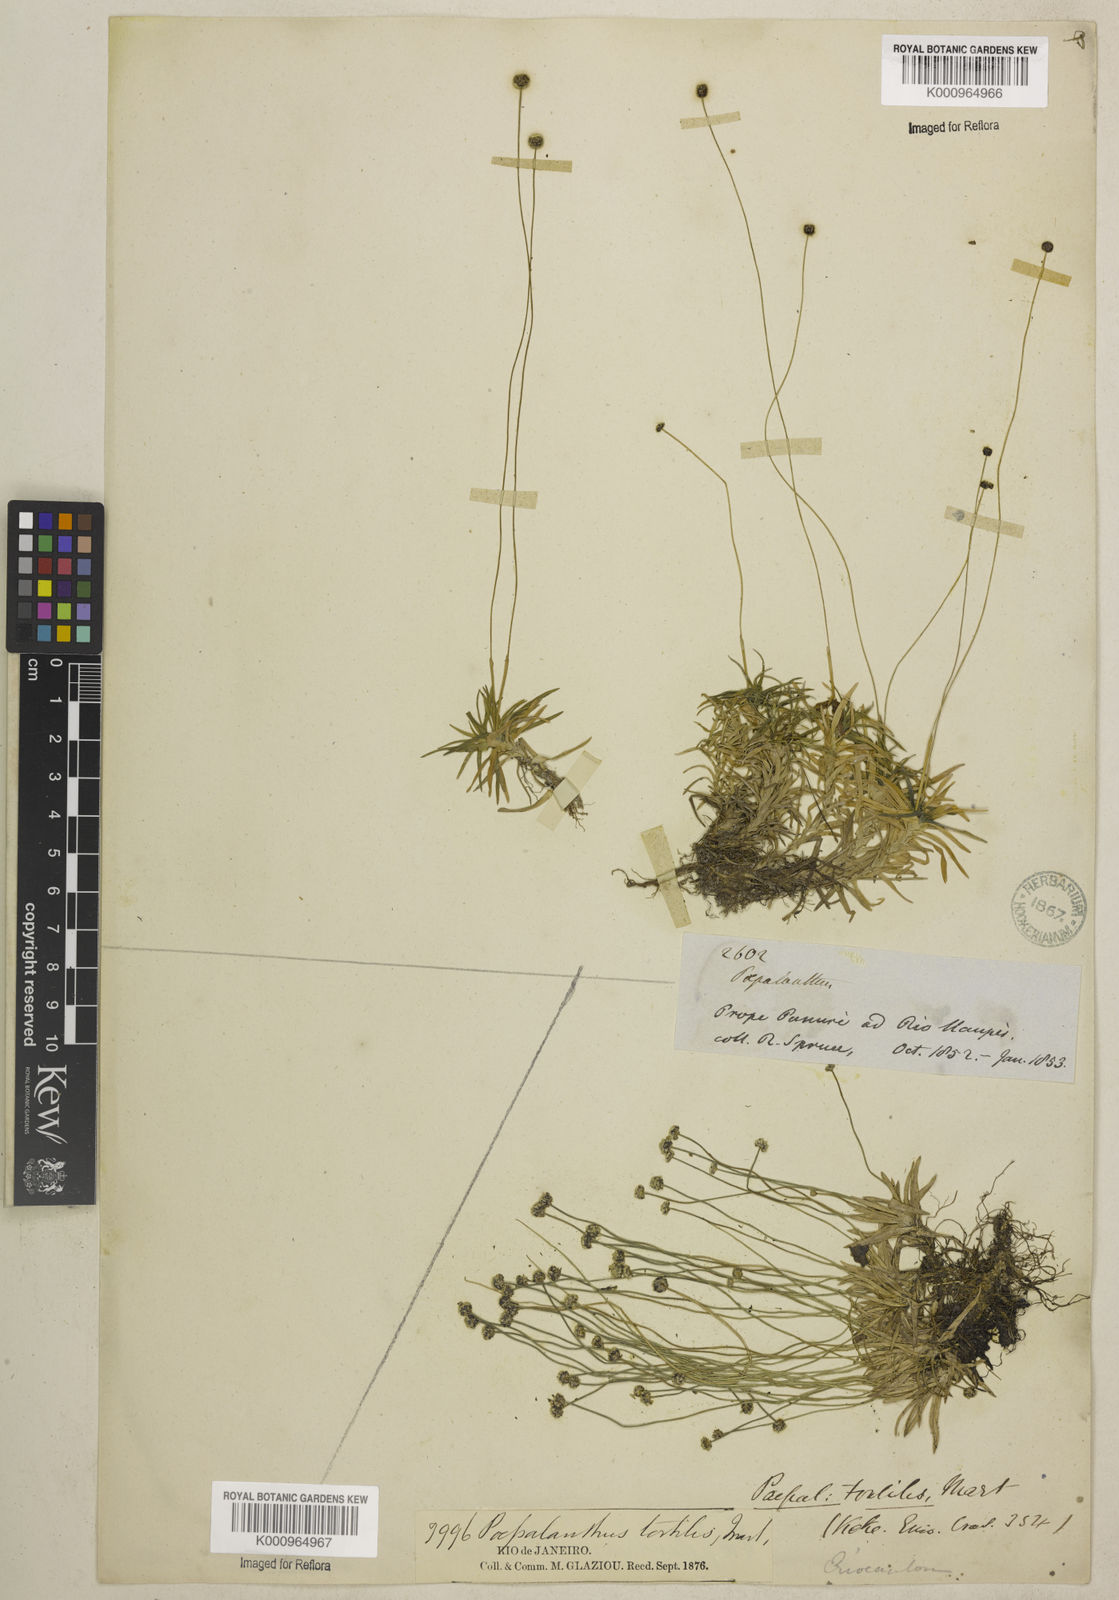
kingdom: Plantae
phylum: Tracheophyta
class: Liliopsida
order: Poales
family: Eriocaulaceae
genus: Paepalanthus
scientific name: Paepalanthus
